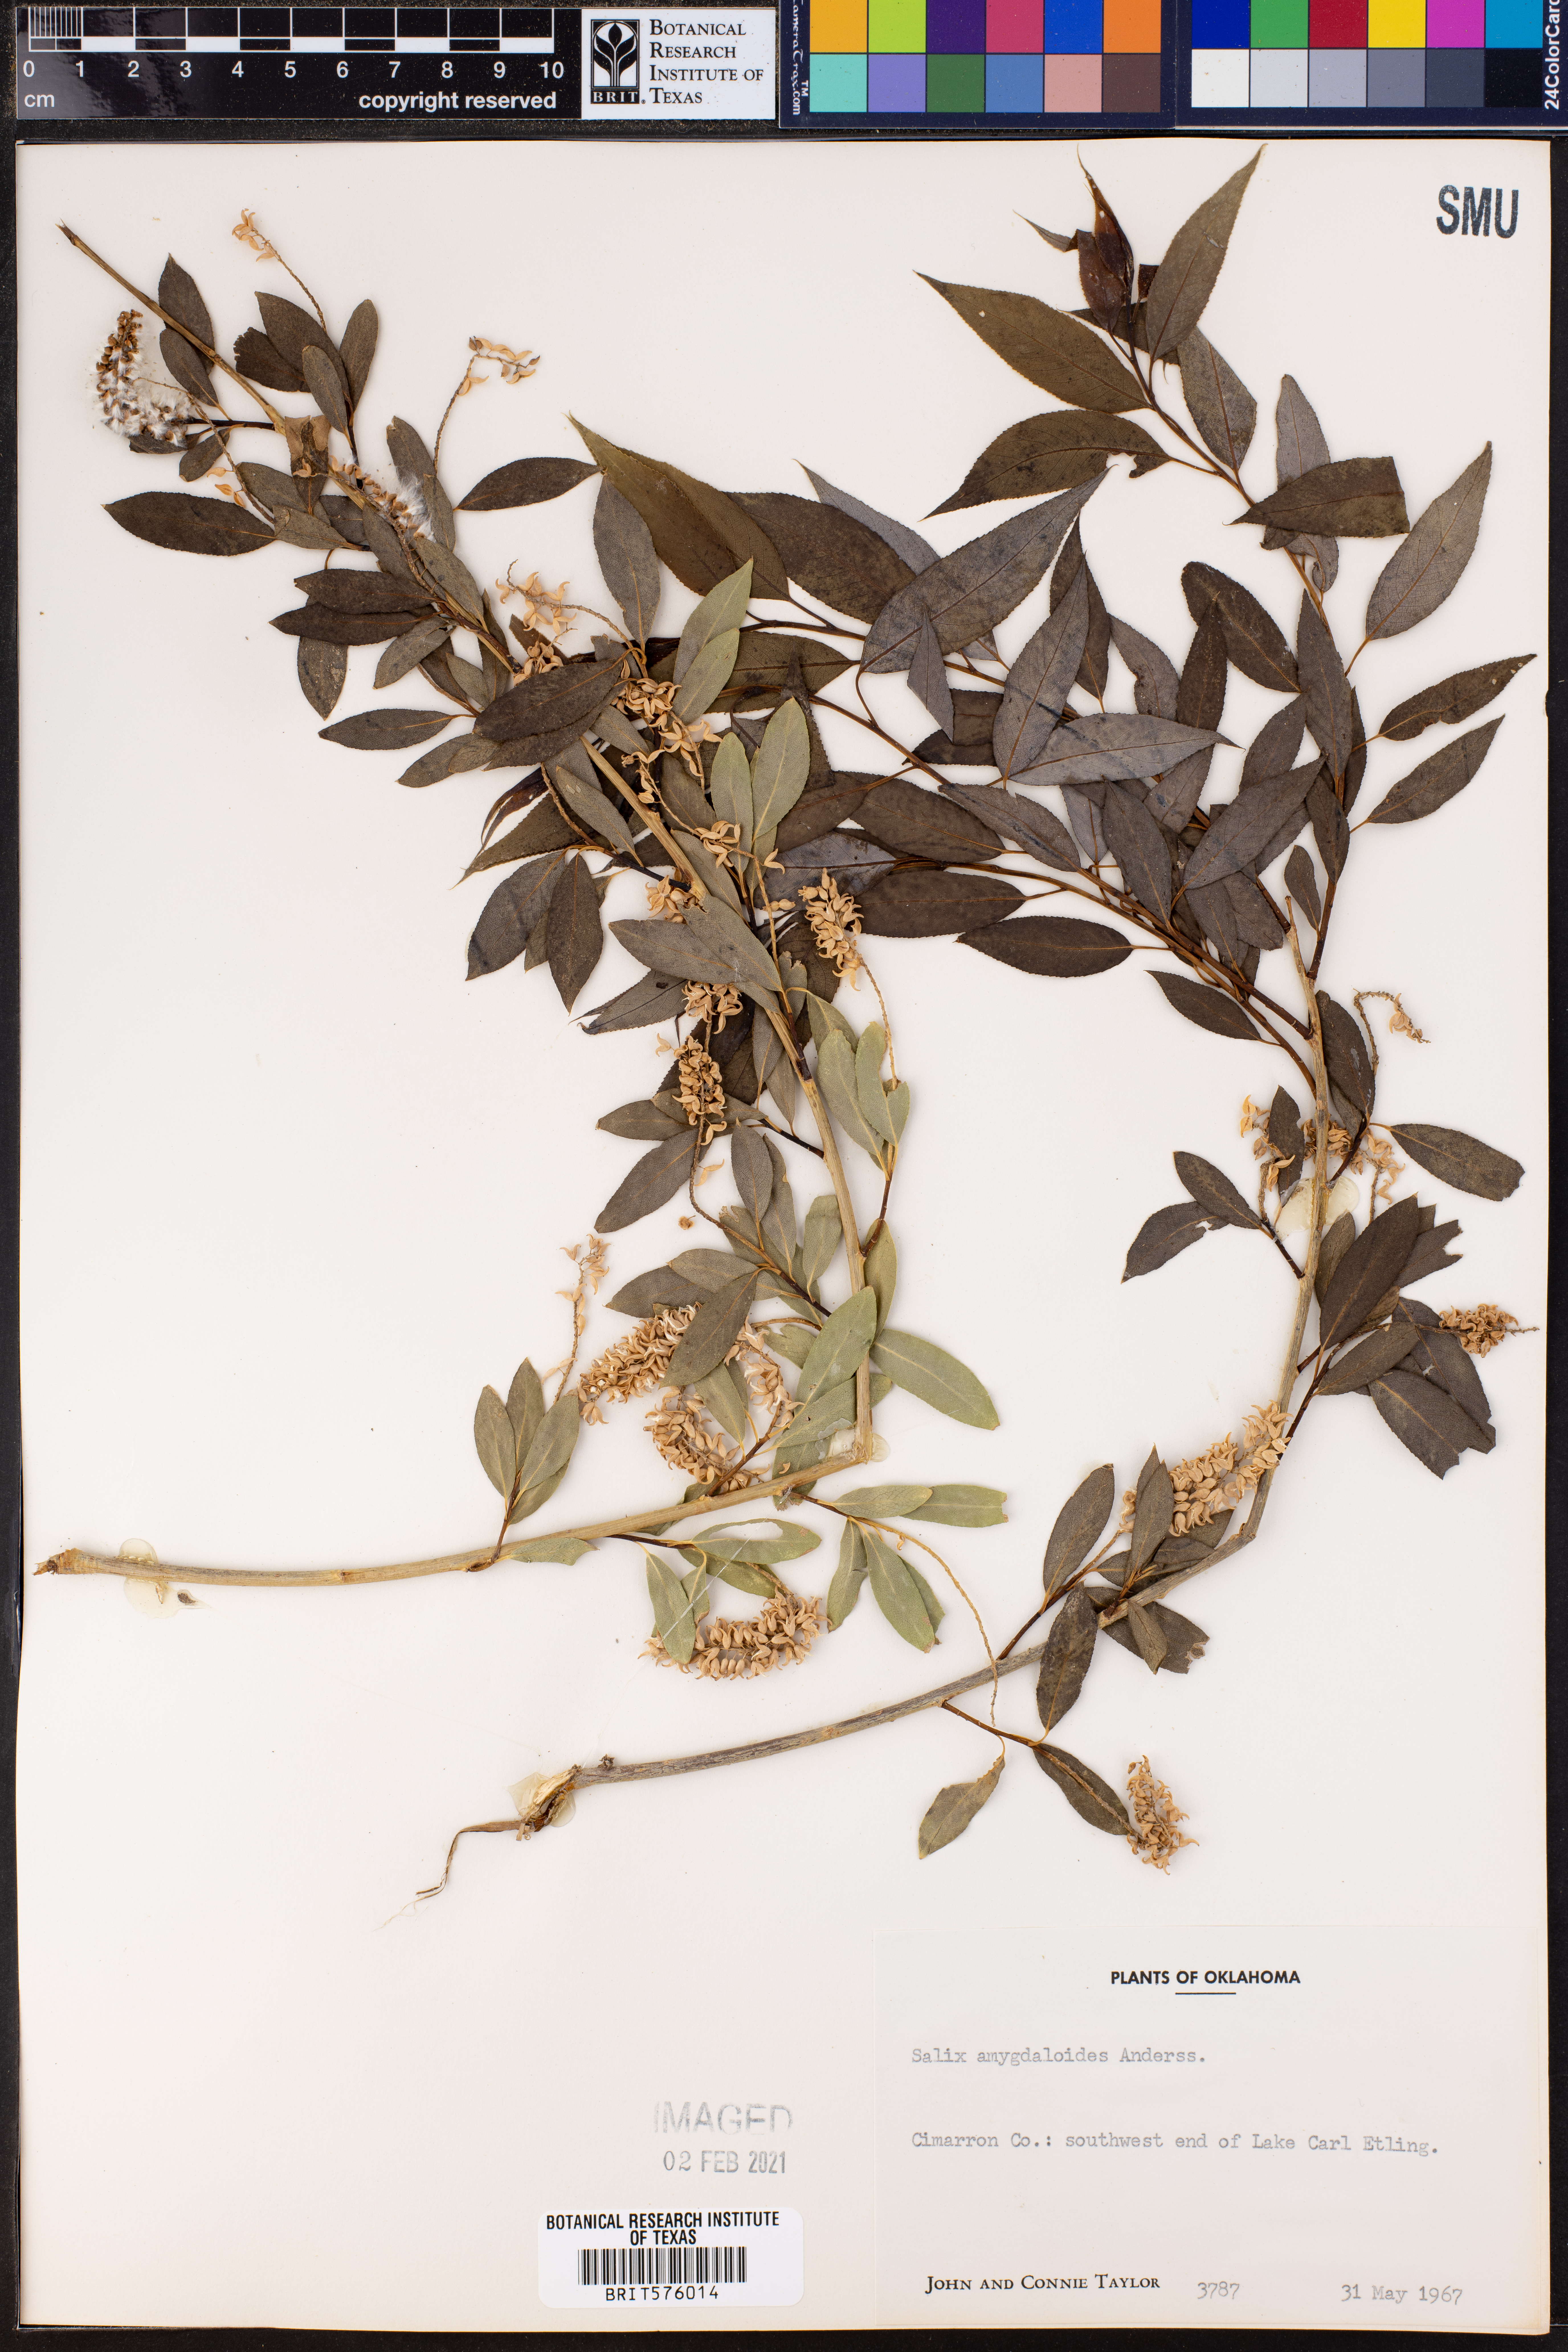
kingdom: Plantae
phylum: Tracheophyta
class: Magnoliopsida
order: Malpighiales
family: Salicaceae
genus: Salix
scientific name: Salix amygdaloides
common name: Peach leaf willow
